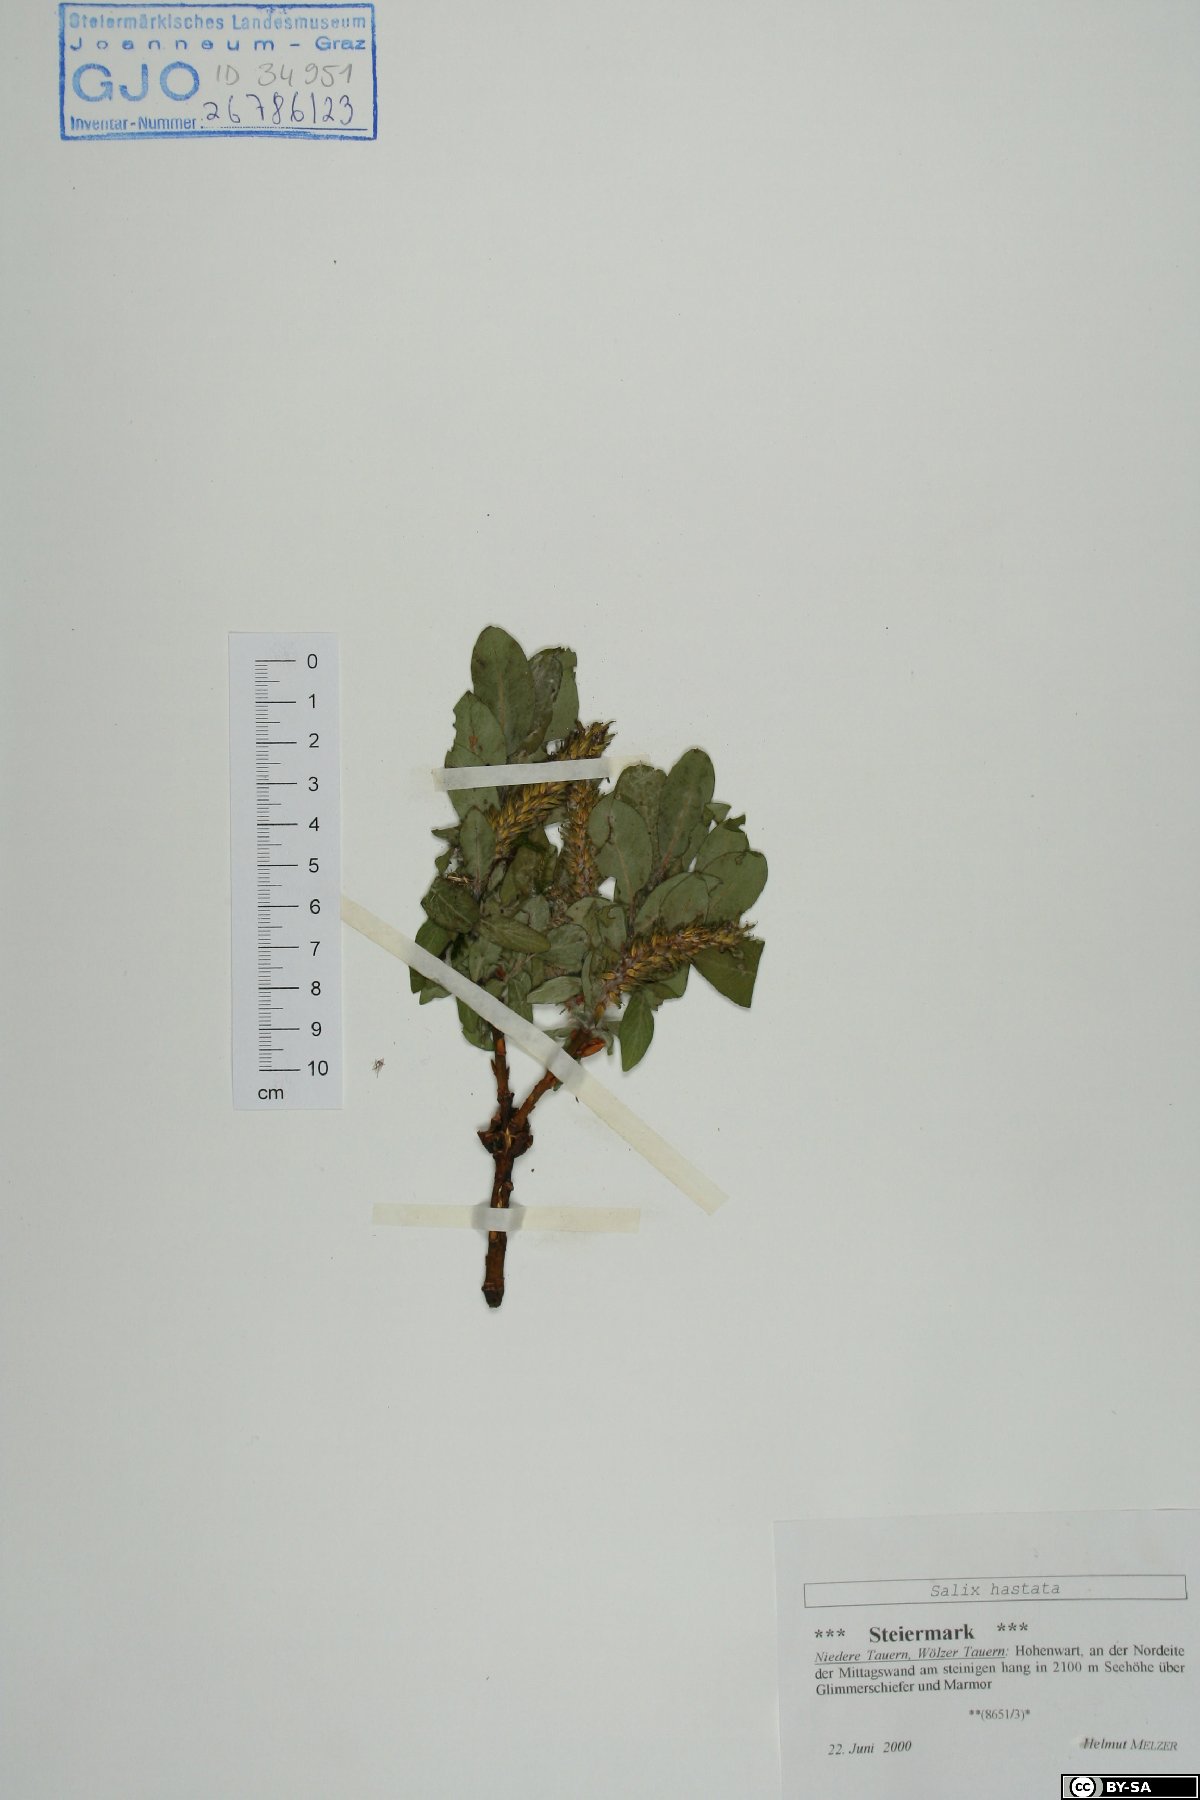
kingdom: Plantae
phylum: Tracheophyta
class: Magnoliopsida
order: Malpighiales
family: Salicaceae
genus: Salix
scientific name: Salix hastata
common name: Halberd willow
